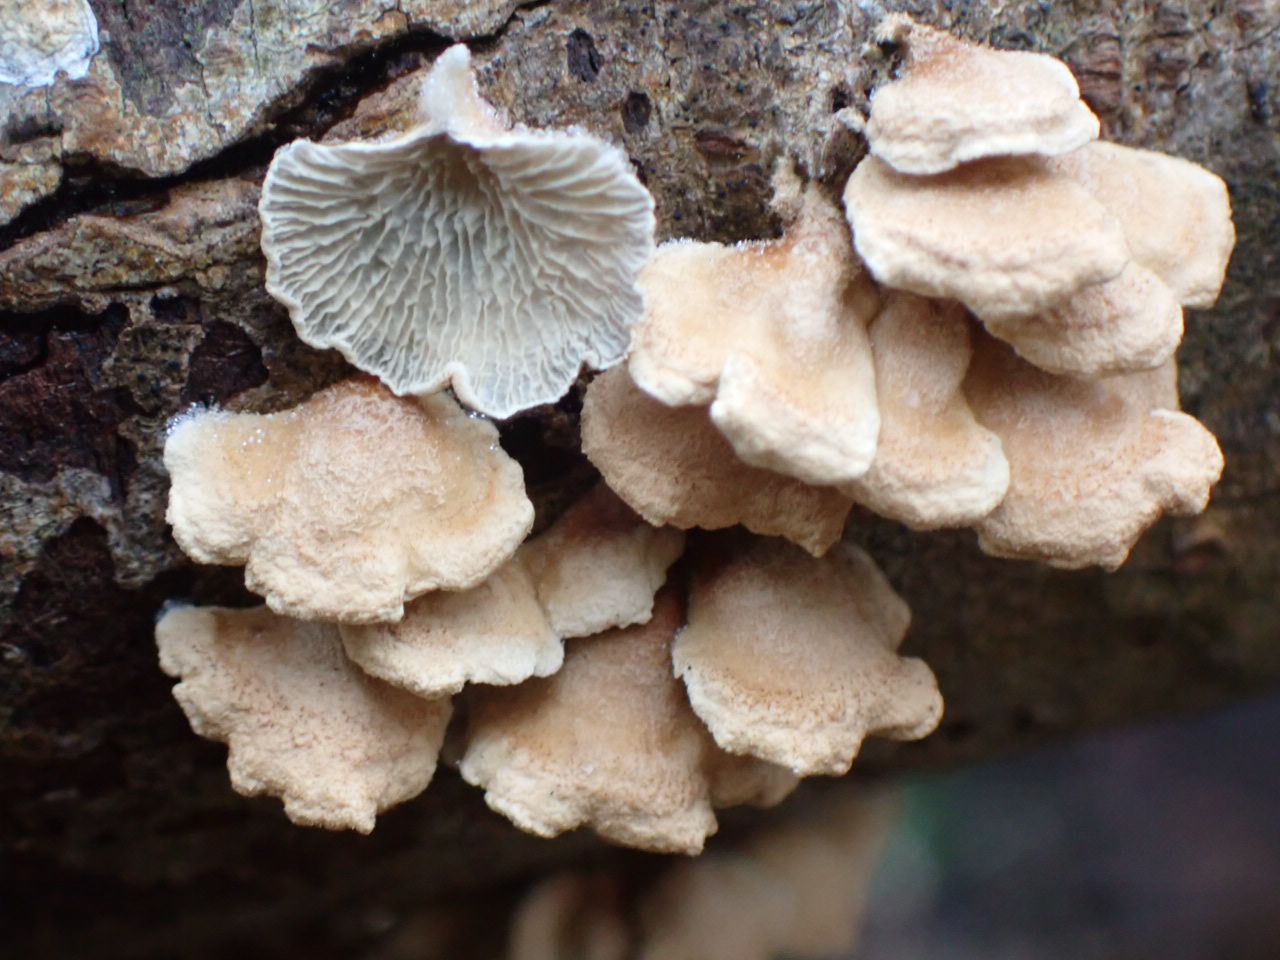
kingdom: Fungi
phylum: Basidiomycota
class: Agaricomycetes
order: Amylocorticiales
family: Amylocorticiaceae
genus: Plicaturopsis
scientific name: Plicaturopsis crispa
